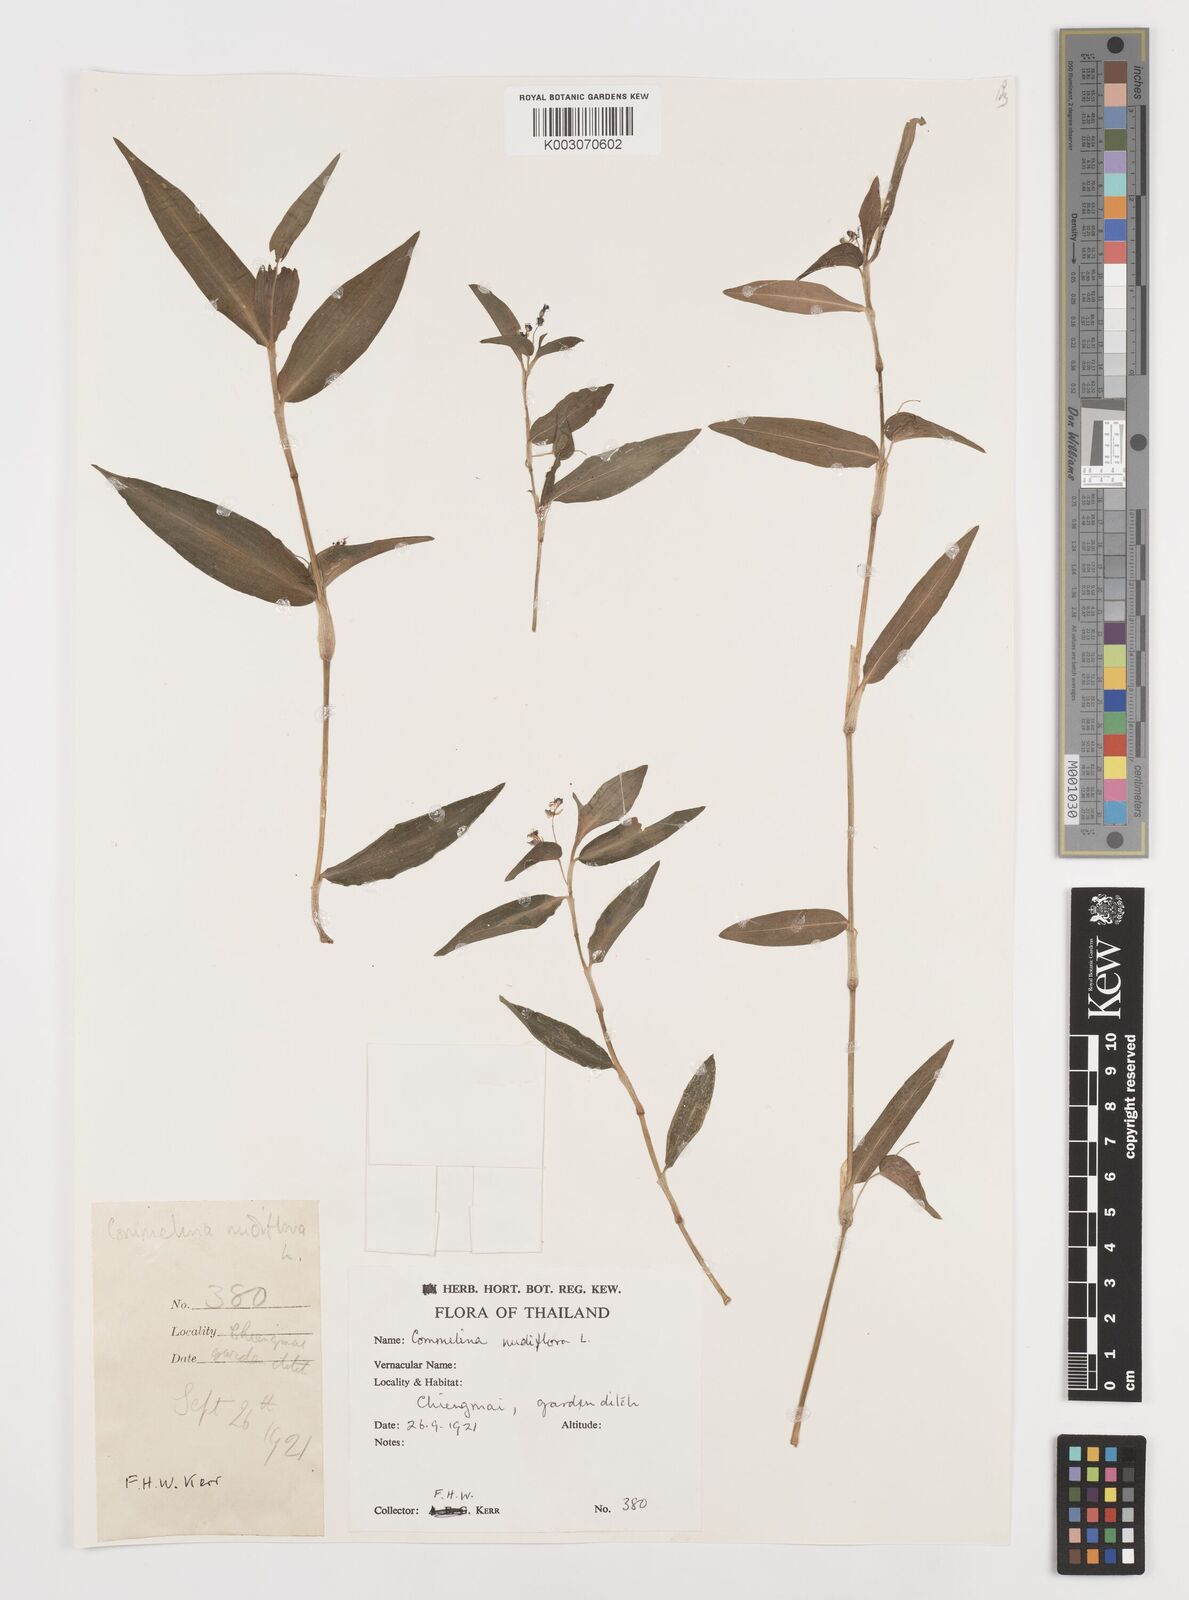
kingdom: Plantae
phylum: Tracheophyta
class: Liliopsida
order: Commelinales
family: Commelinaceae
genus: Commelina
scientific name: Commelina clavata
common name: Willow leaved dayflower
